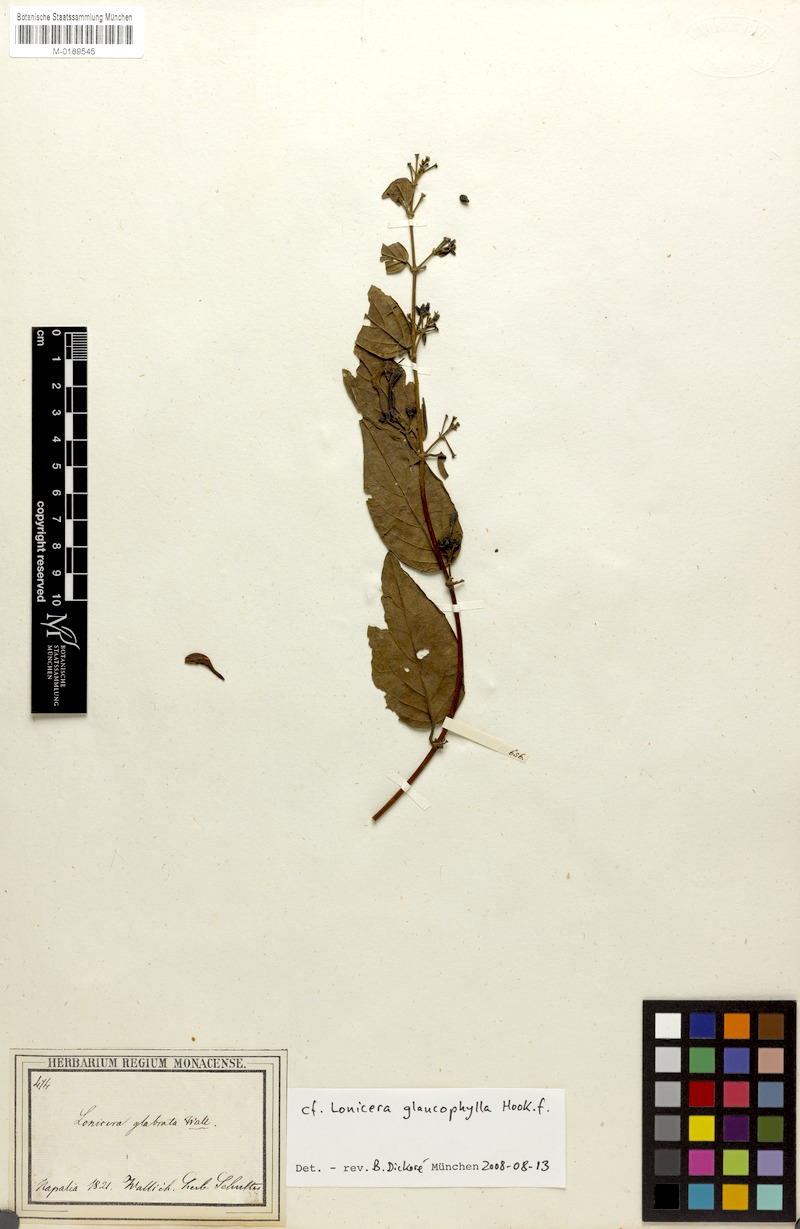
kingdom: Plantae
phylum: Tracheophyta
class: Magnoliopsida
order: Dipsacales
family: Caprifoliaceae
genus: Leycesteria
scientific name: Leycesteria glaucophylla
